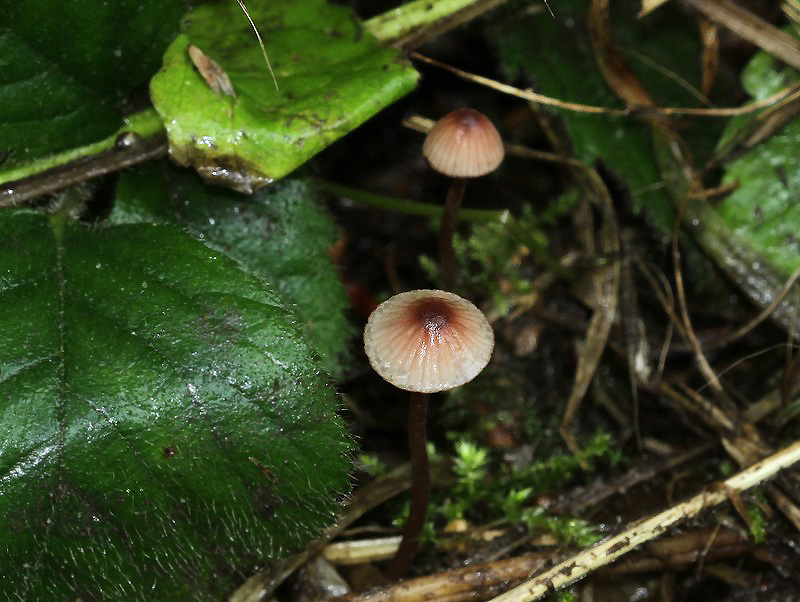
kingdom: Fungi
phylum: Basidiomycota
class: Agaricomycetes
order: Agaricales
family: Mycenaceae
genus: Mycena
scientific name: Mycena sanguinolenta
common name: rødmælket huesvamp
